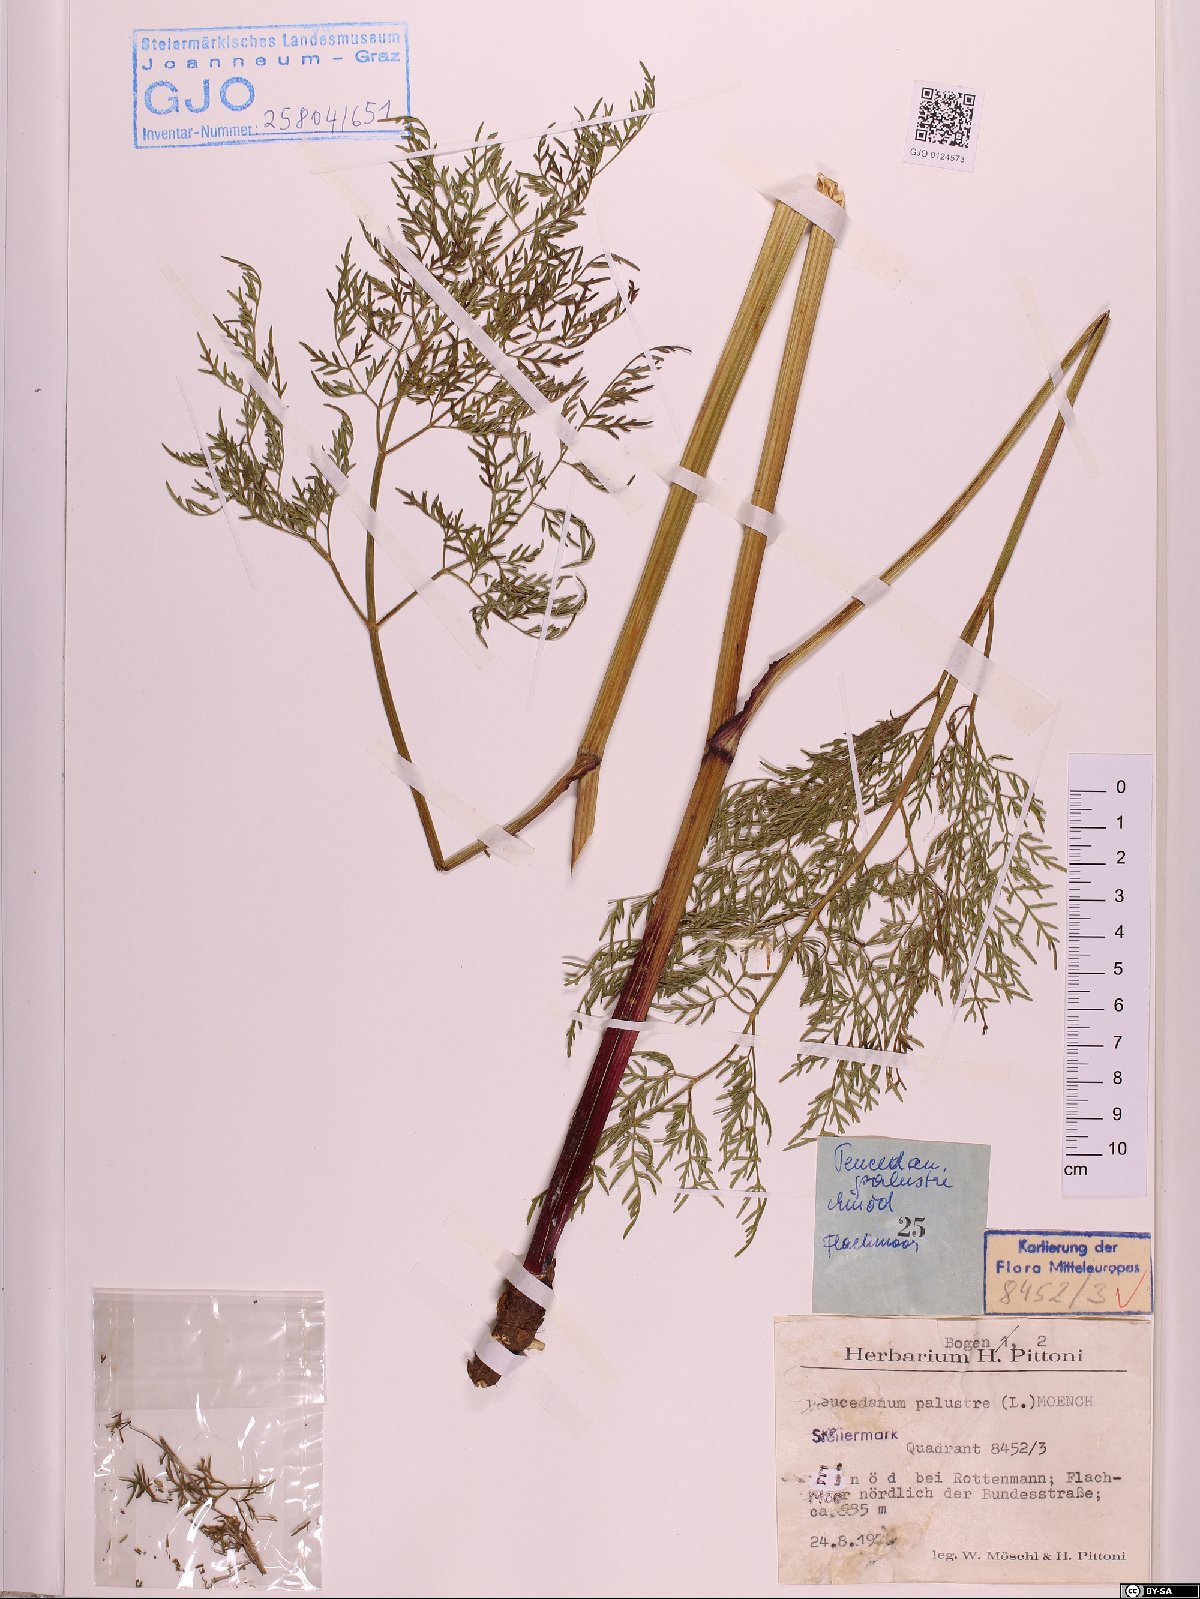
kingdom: Plantae
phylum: Tracheophyta
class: Magnoliopsida
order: Apiales
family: Apiaceae
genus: Thysselinum
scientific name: Thysselinum palustre
